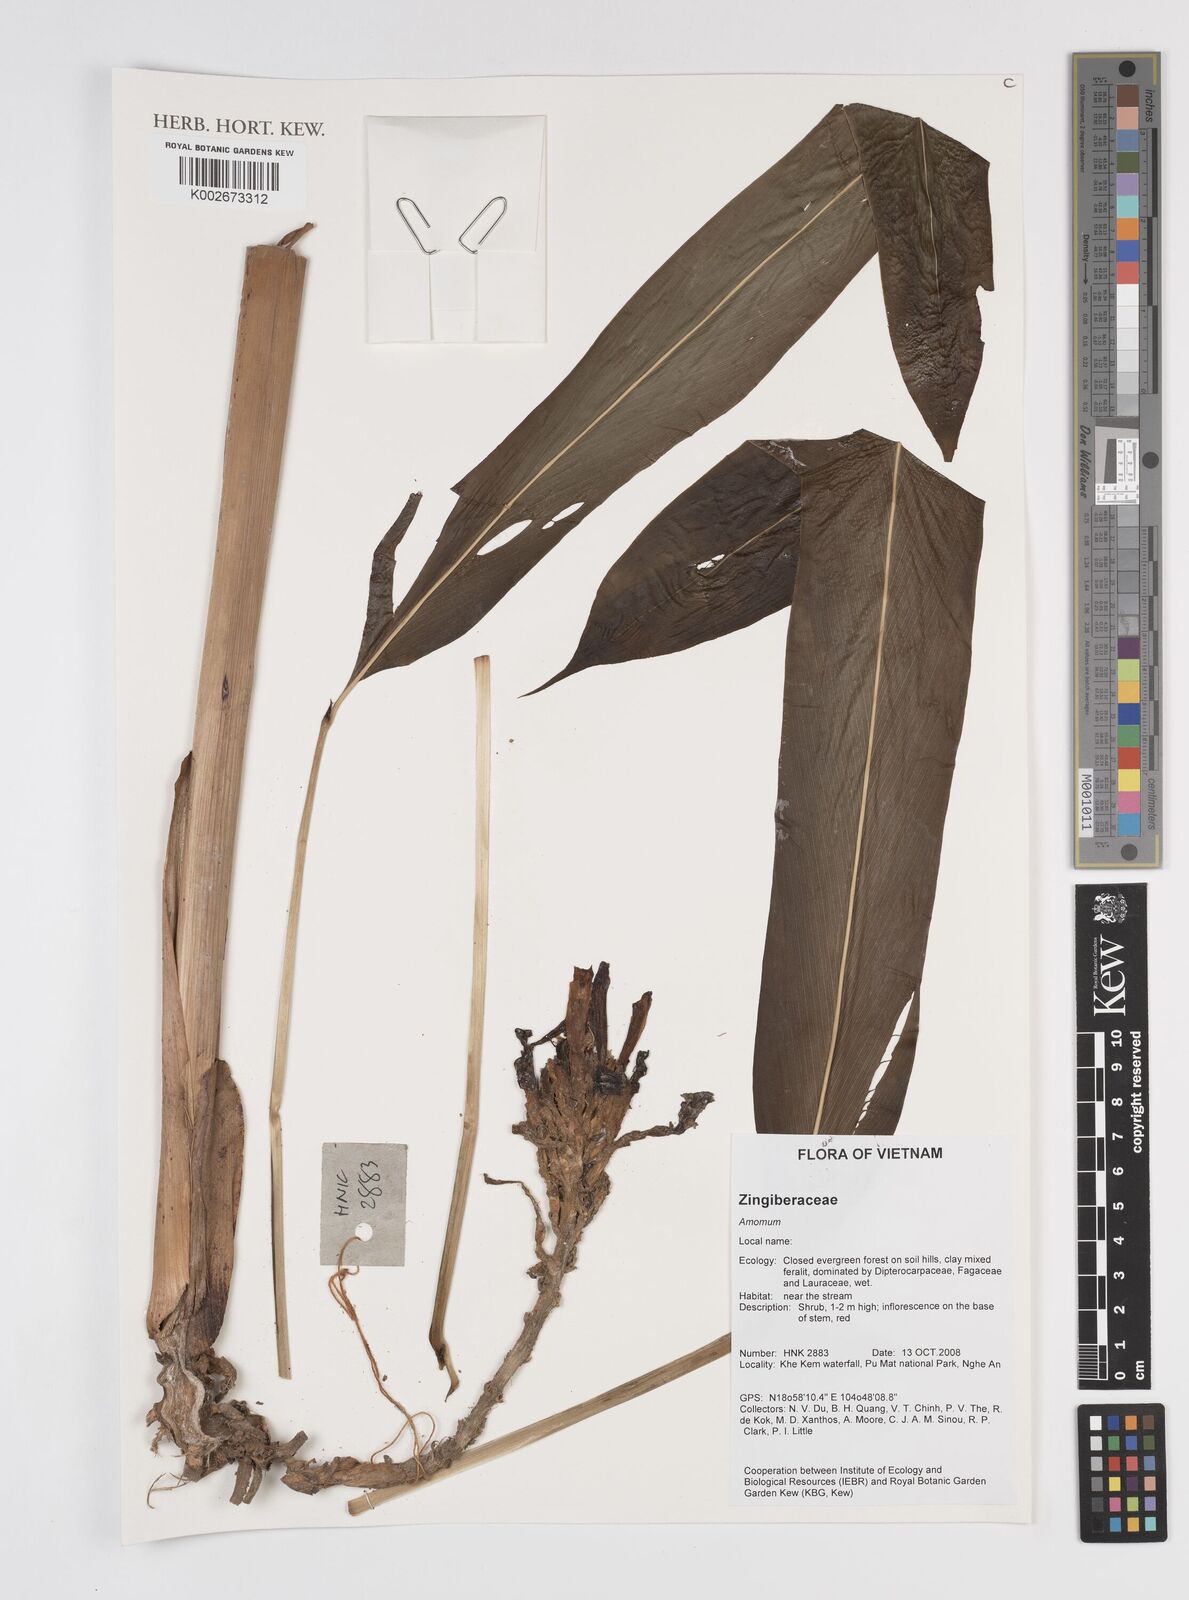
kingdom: Plantae
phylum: Tracheophyta
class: Liliopsida
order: Zingiberales
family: Zingiberaceae
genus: Amomum
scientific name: Amomum
